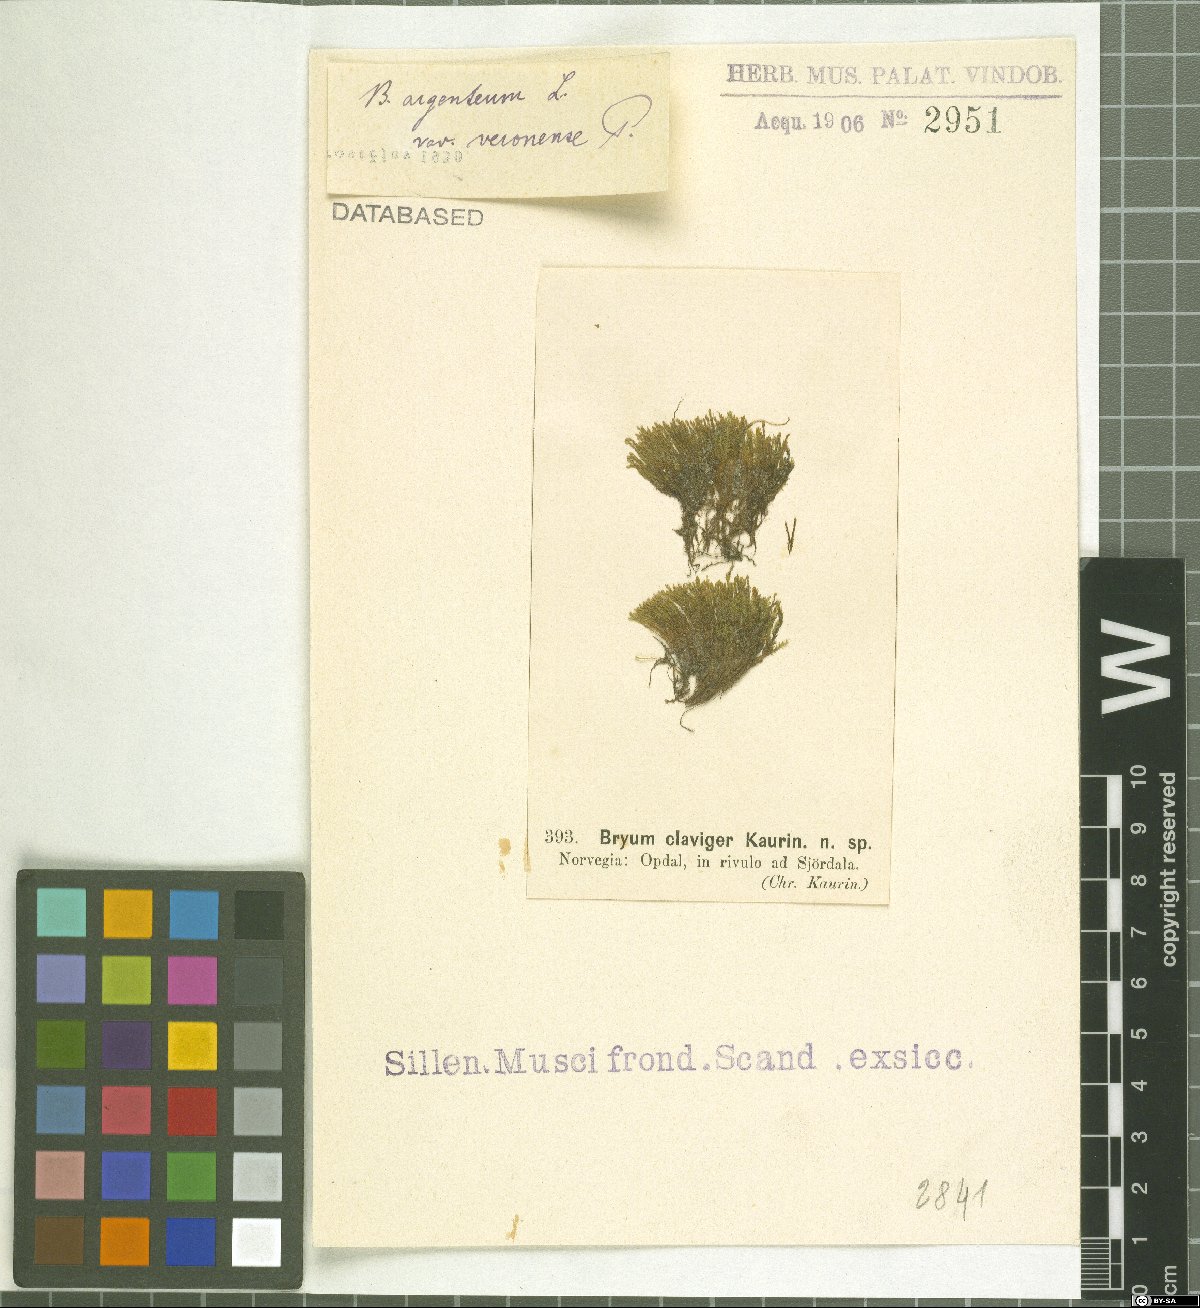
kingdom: Plantae
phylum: Bryophyta
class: Bryopsida
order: Bryales
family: Bryaceae
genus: Bryum
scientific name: Bryum veronense
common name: River bryum
